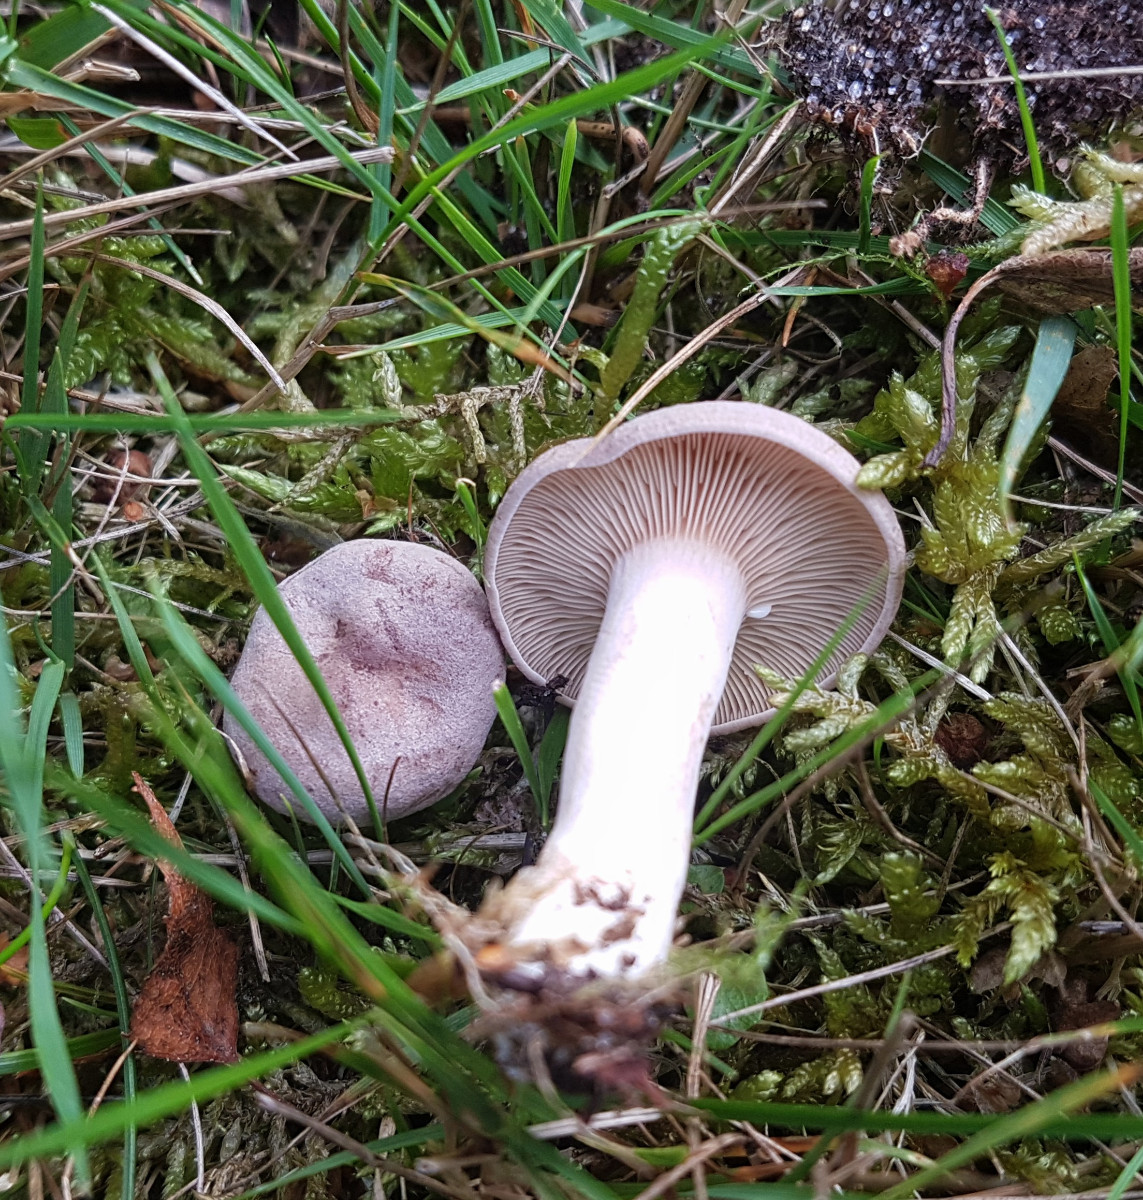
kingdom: Fungi
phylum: Basidiomycota
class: Agaricomycetes
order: Russulales
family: Russulaceae
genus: Lactarius
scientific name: Lactarius glyciosmus
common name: kokos-mælkehat
